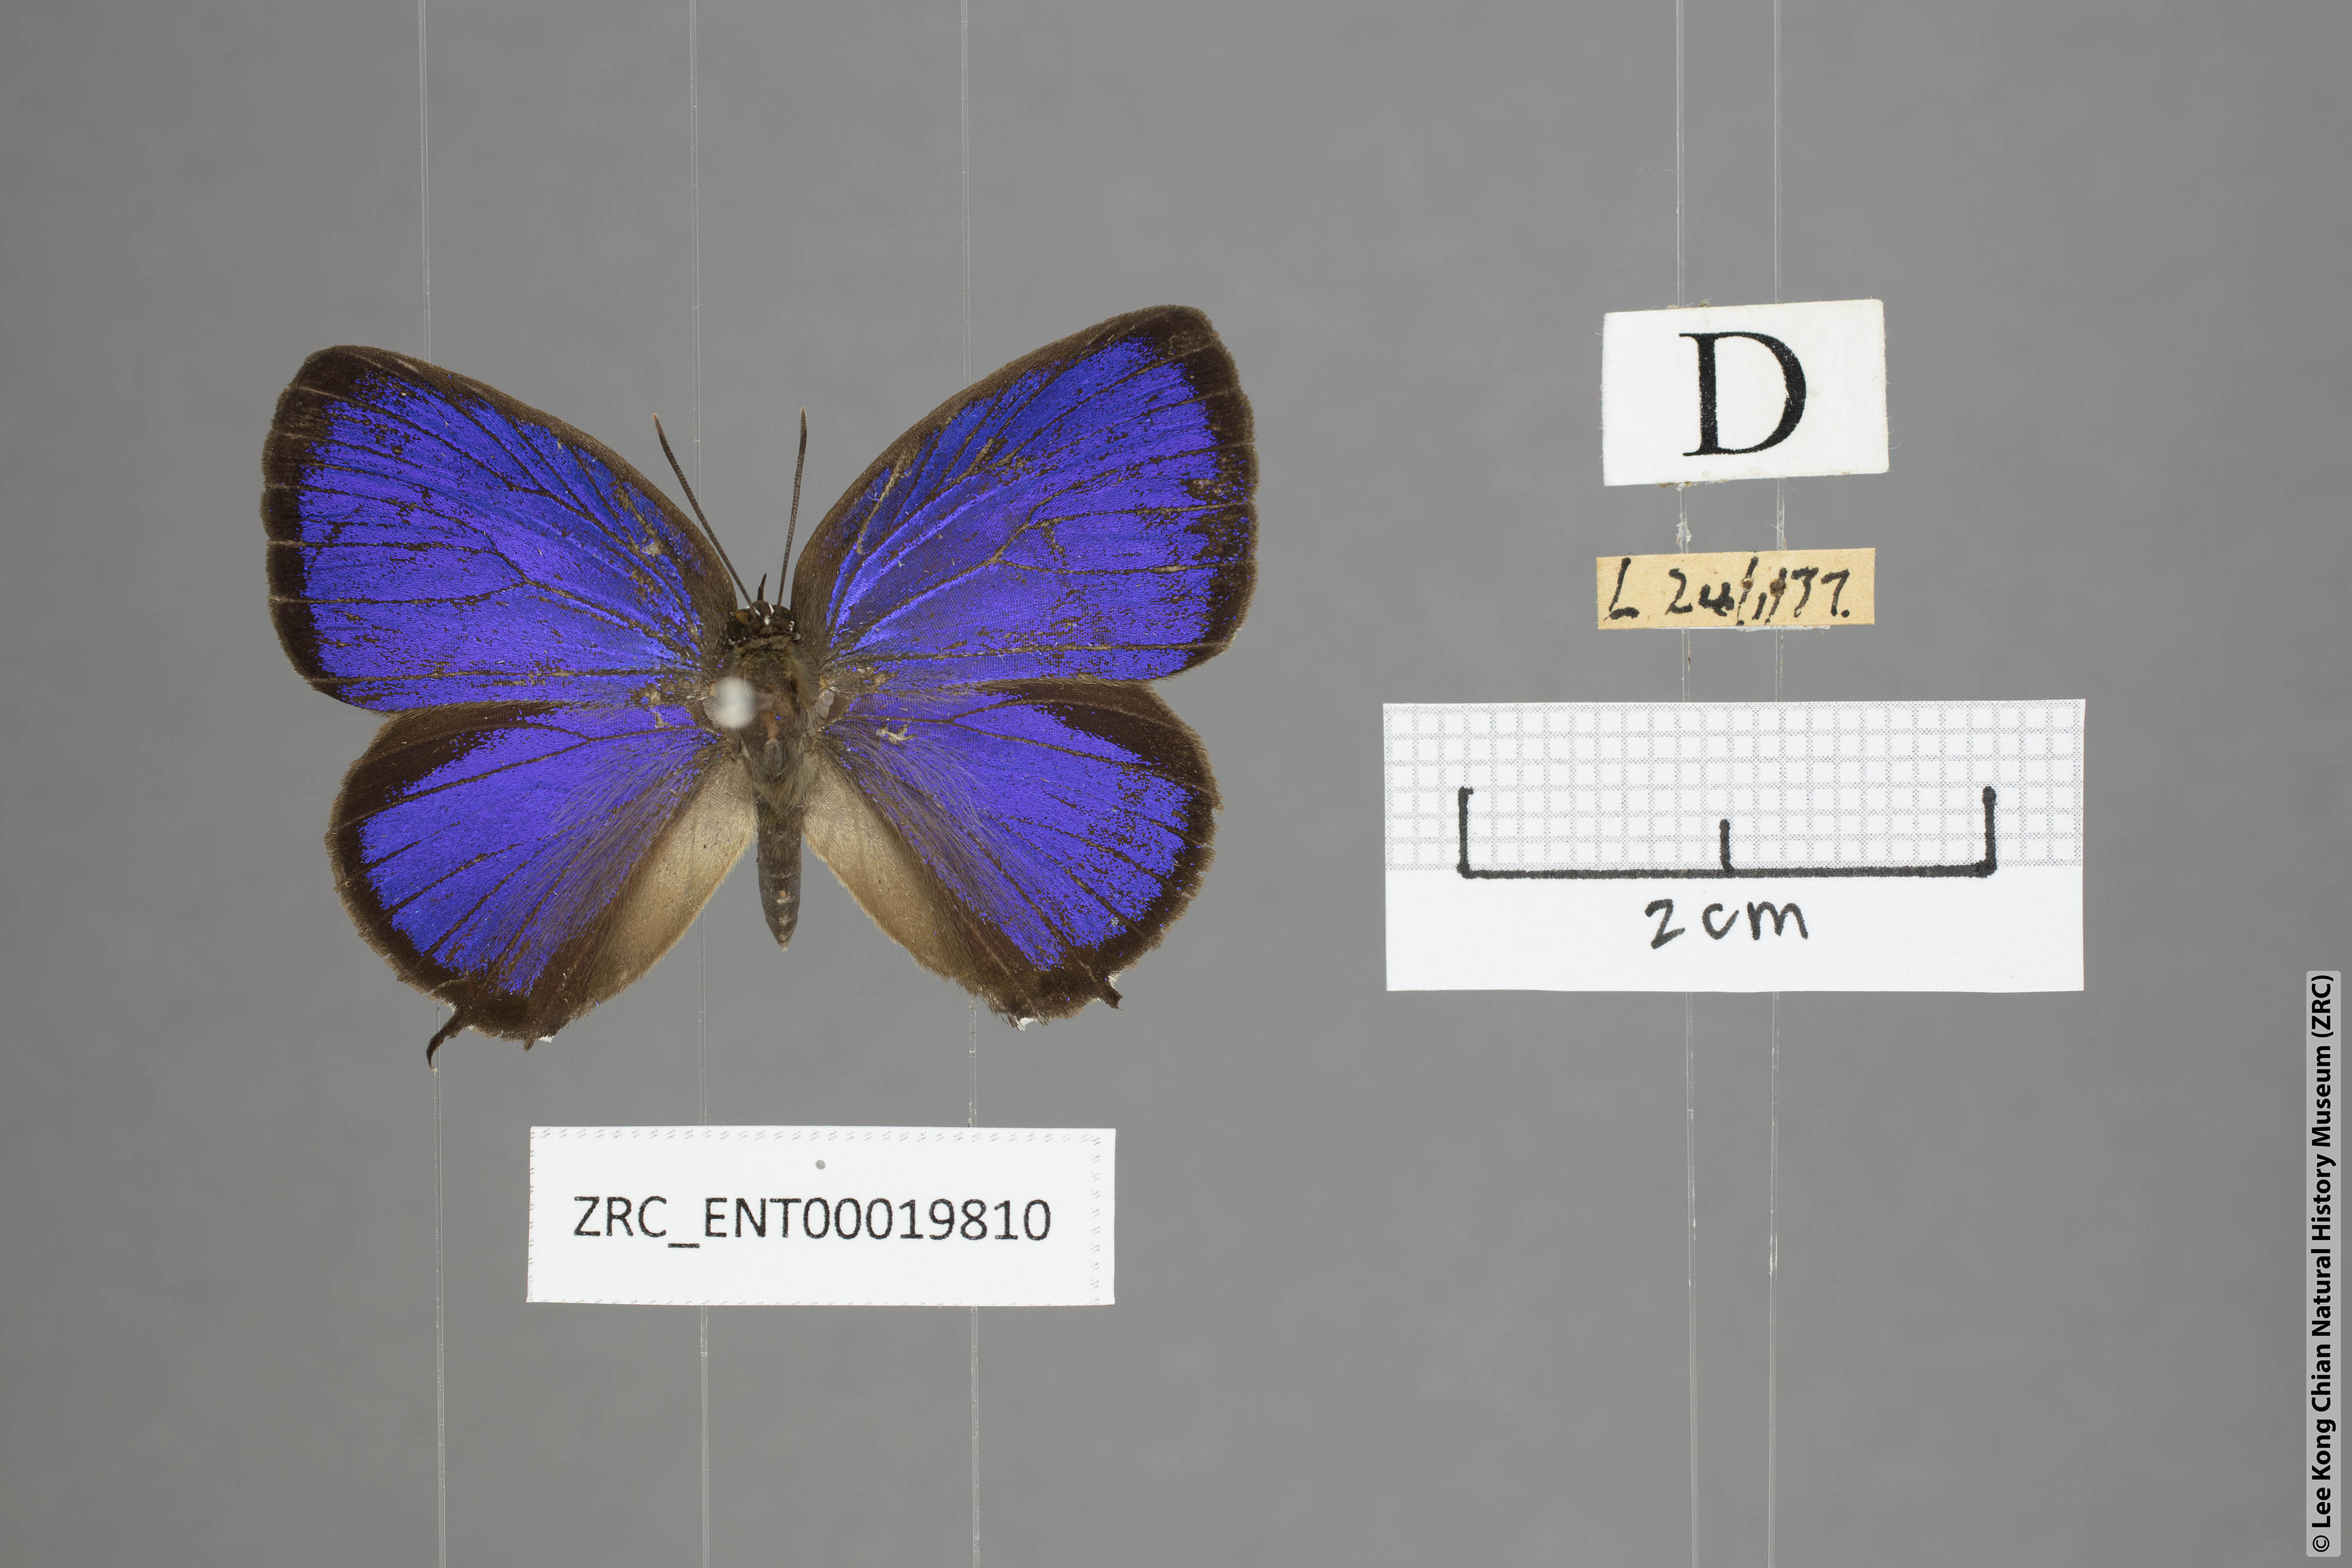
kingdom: Animalia
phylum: Arthropoda
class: Insecta
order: Lepidoptera
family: Lycaenidae
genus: Arhopala
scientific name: Arhopala pseudomuta
